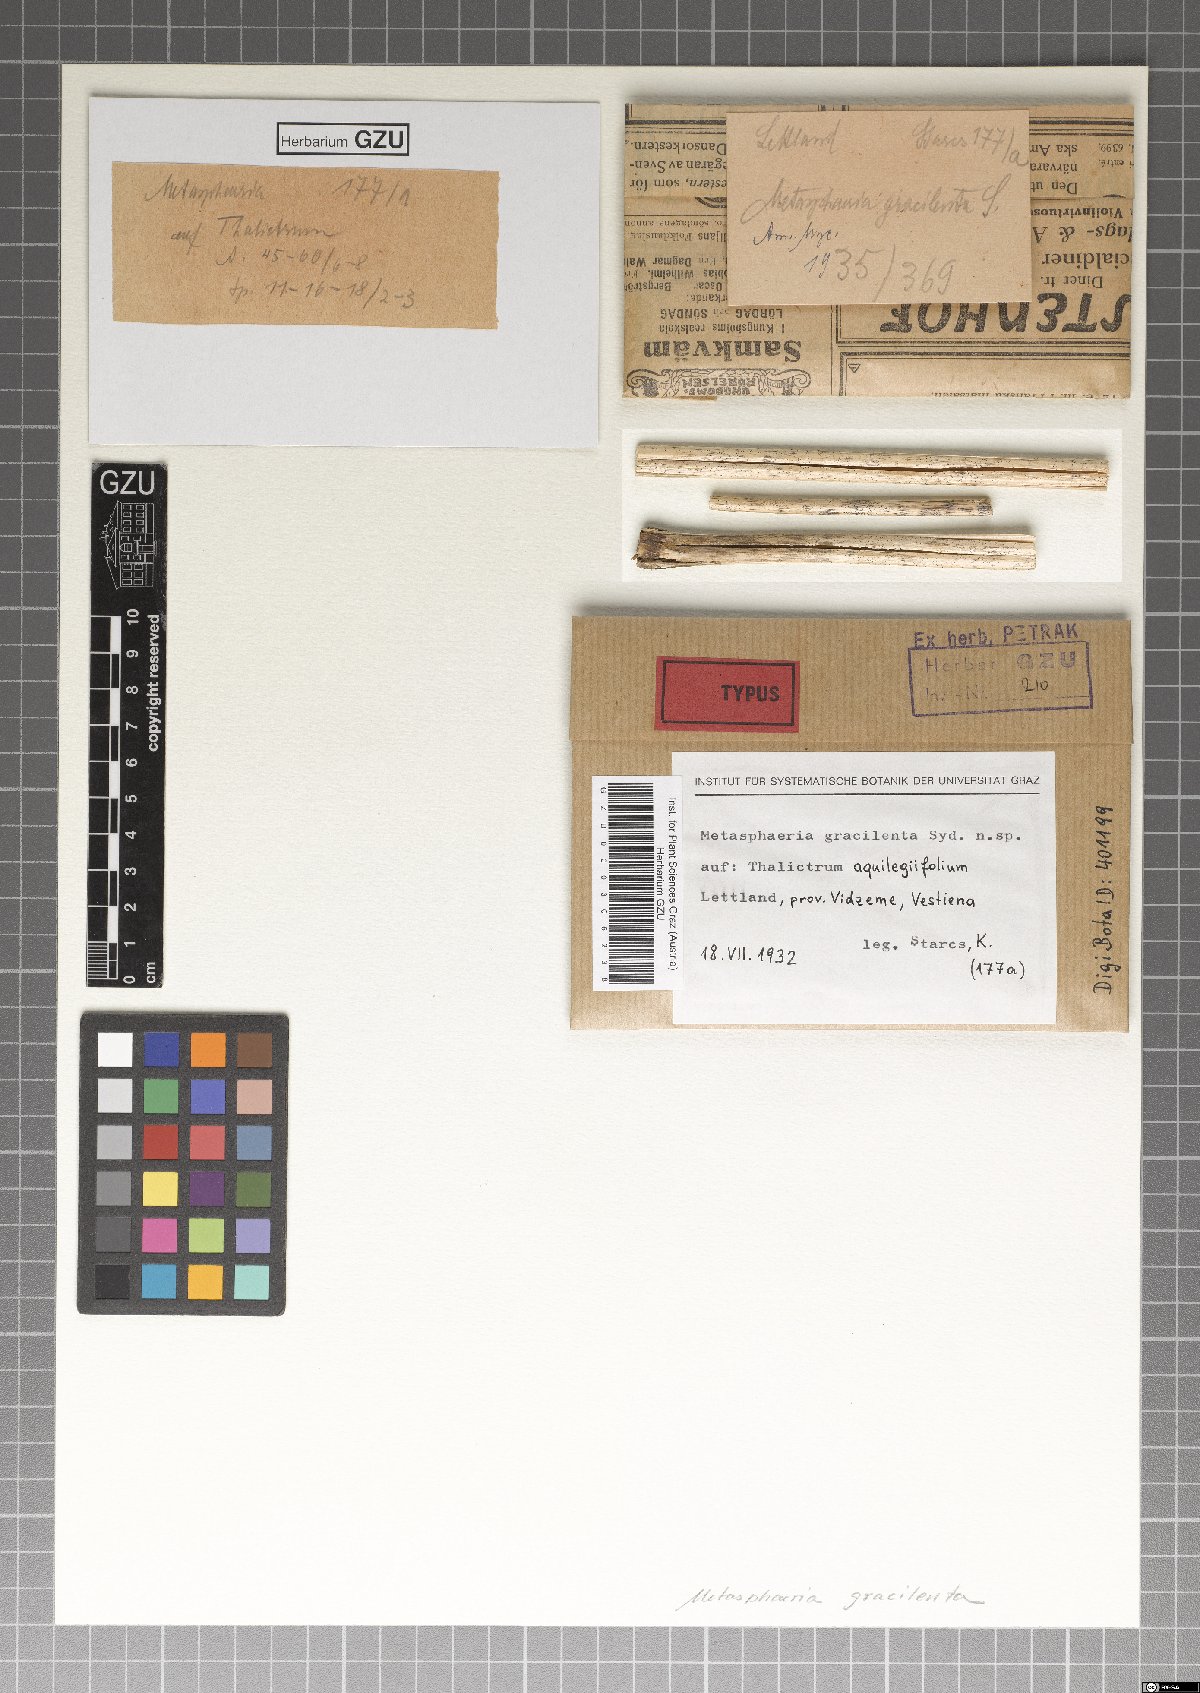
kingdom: Fungi
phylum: Ascomycota
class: Dothideomycetes
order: Dothideales
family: Saccotheciaceae
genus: Metasphaeria
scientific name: Metasphaeria gracilenta
